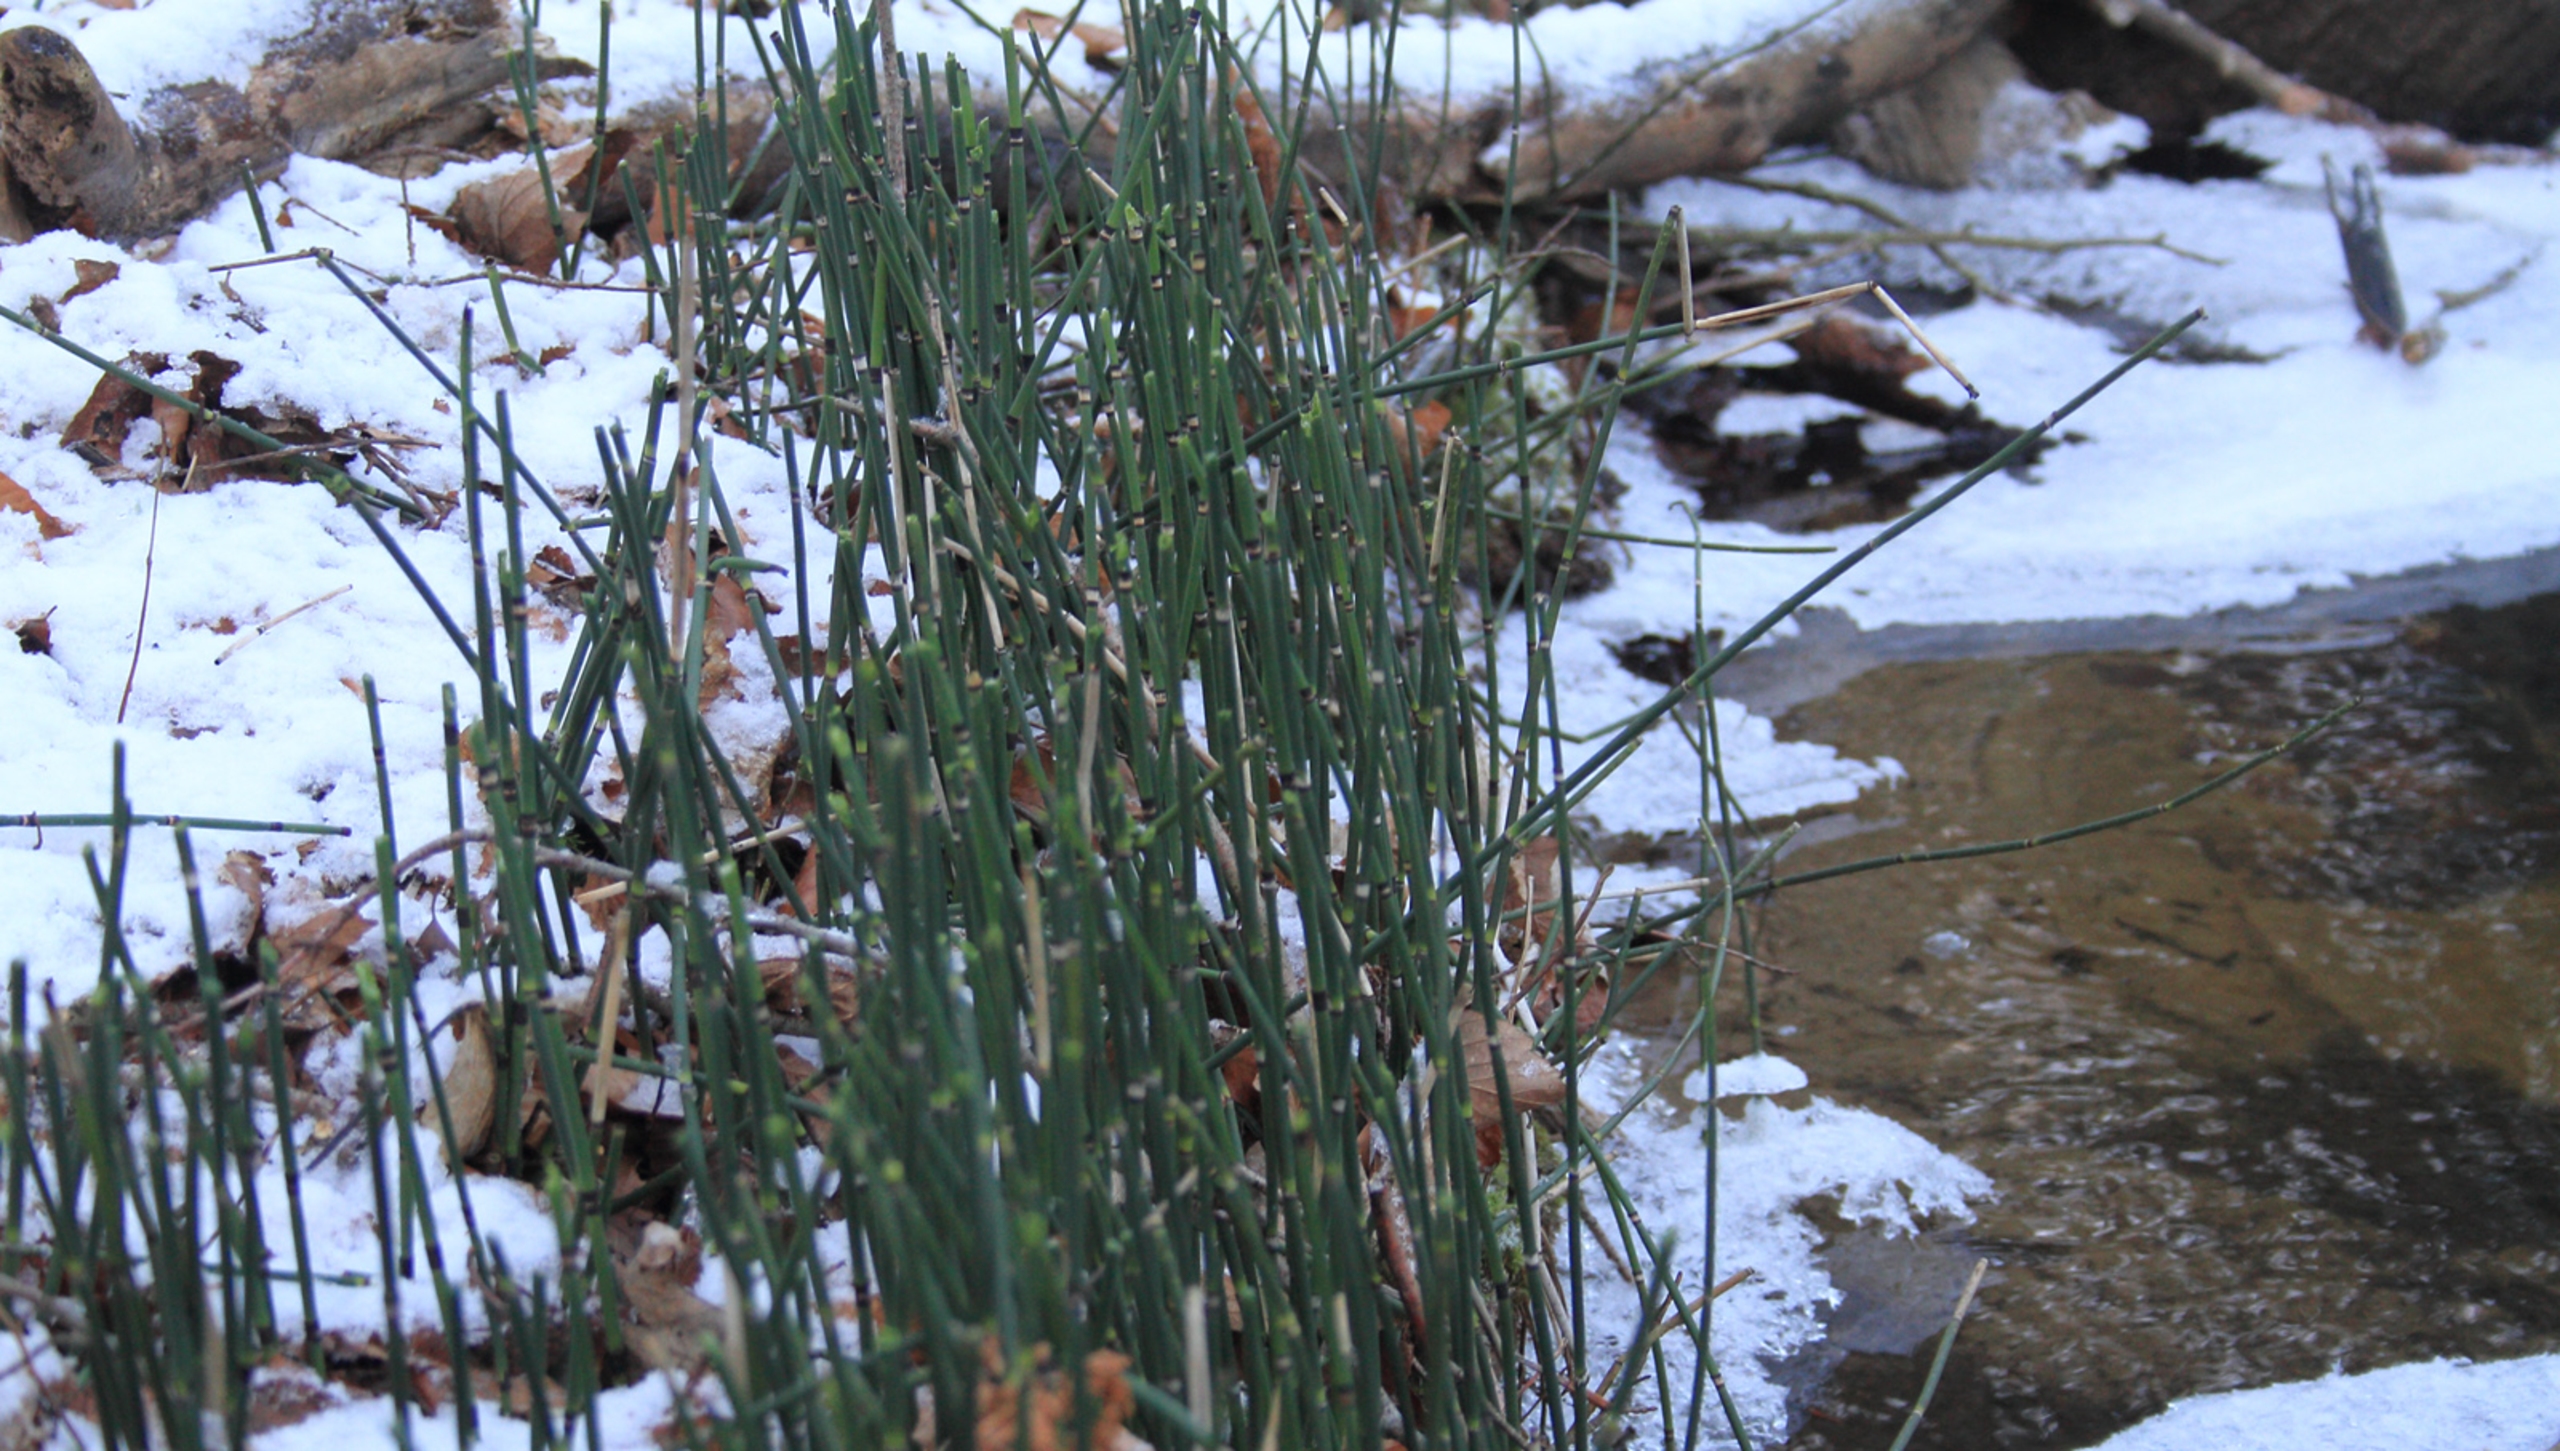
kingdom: Plantae
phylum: Tracheophyta
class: Polypodiopsida
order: Equisetales
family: Equisetaceae
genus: Equisetum
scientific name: Equisetum hyemale
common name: Skavgræs
